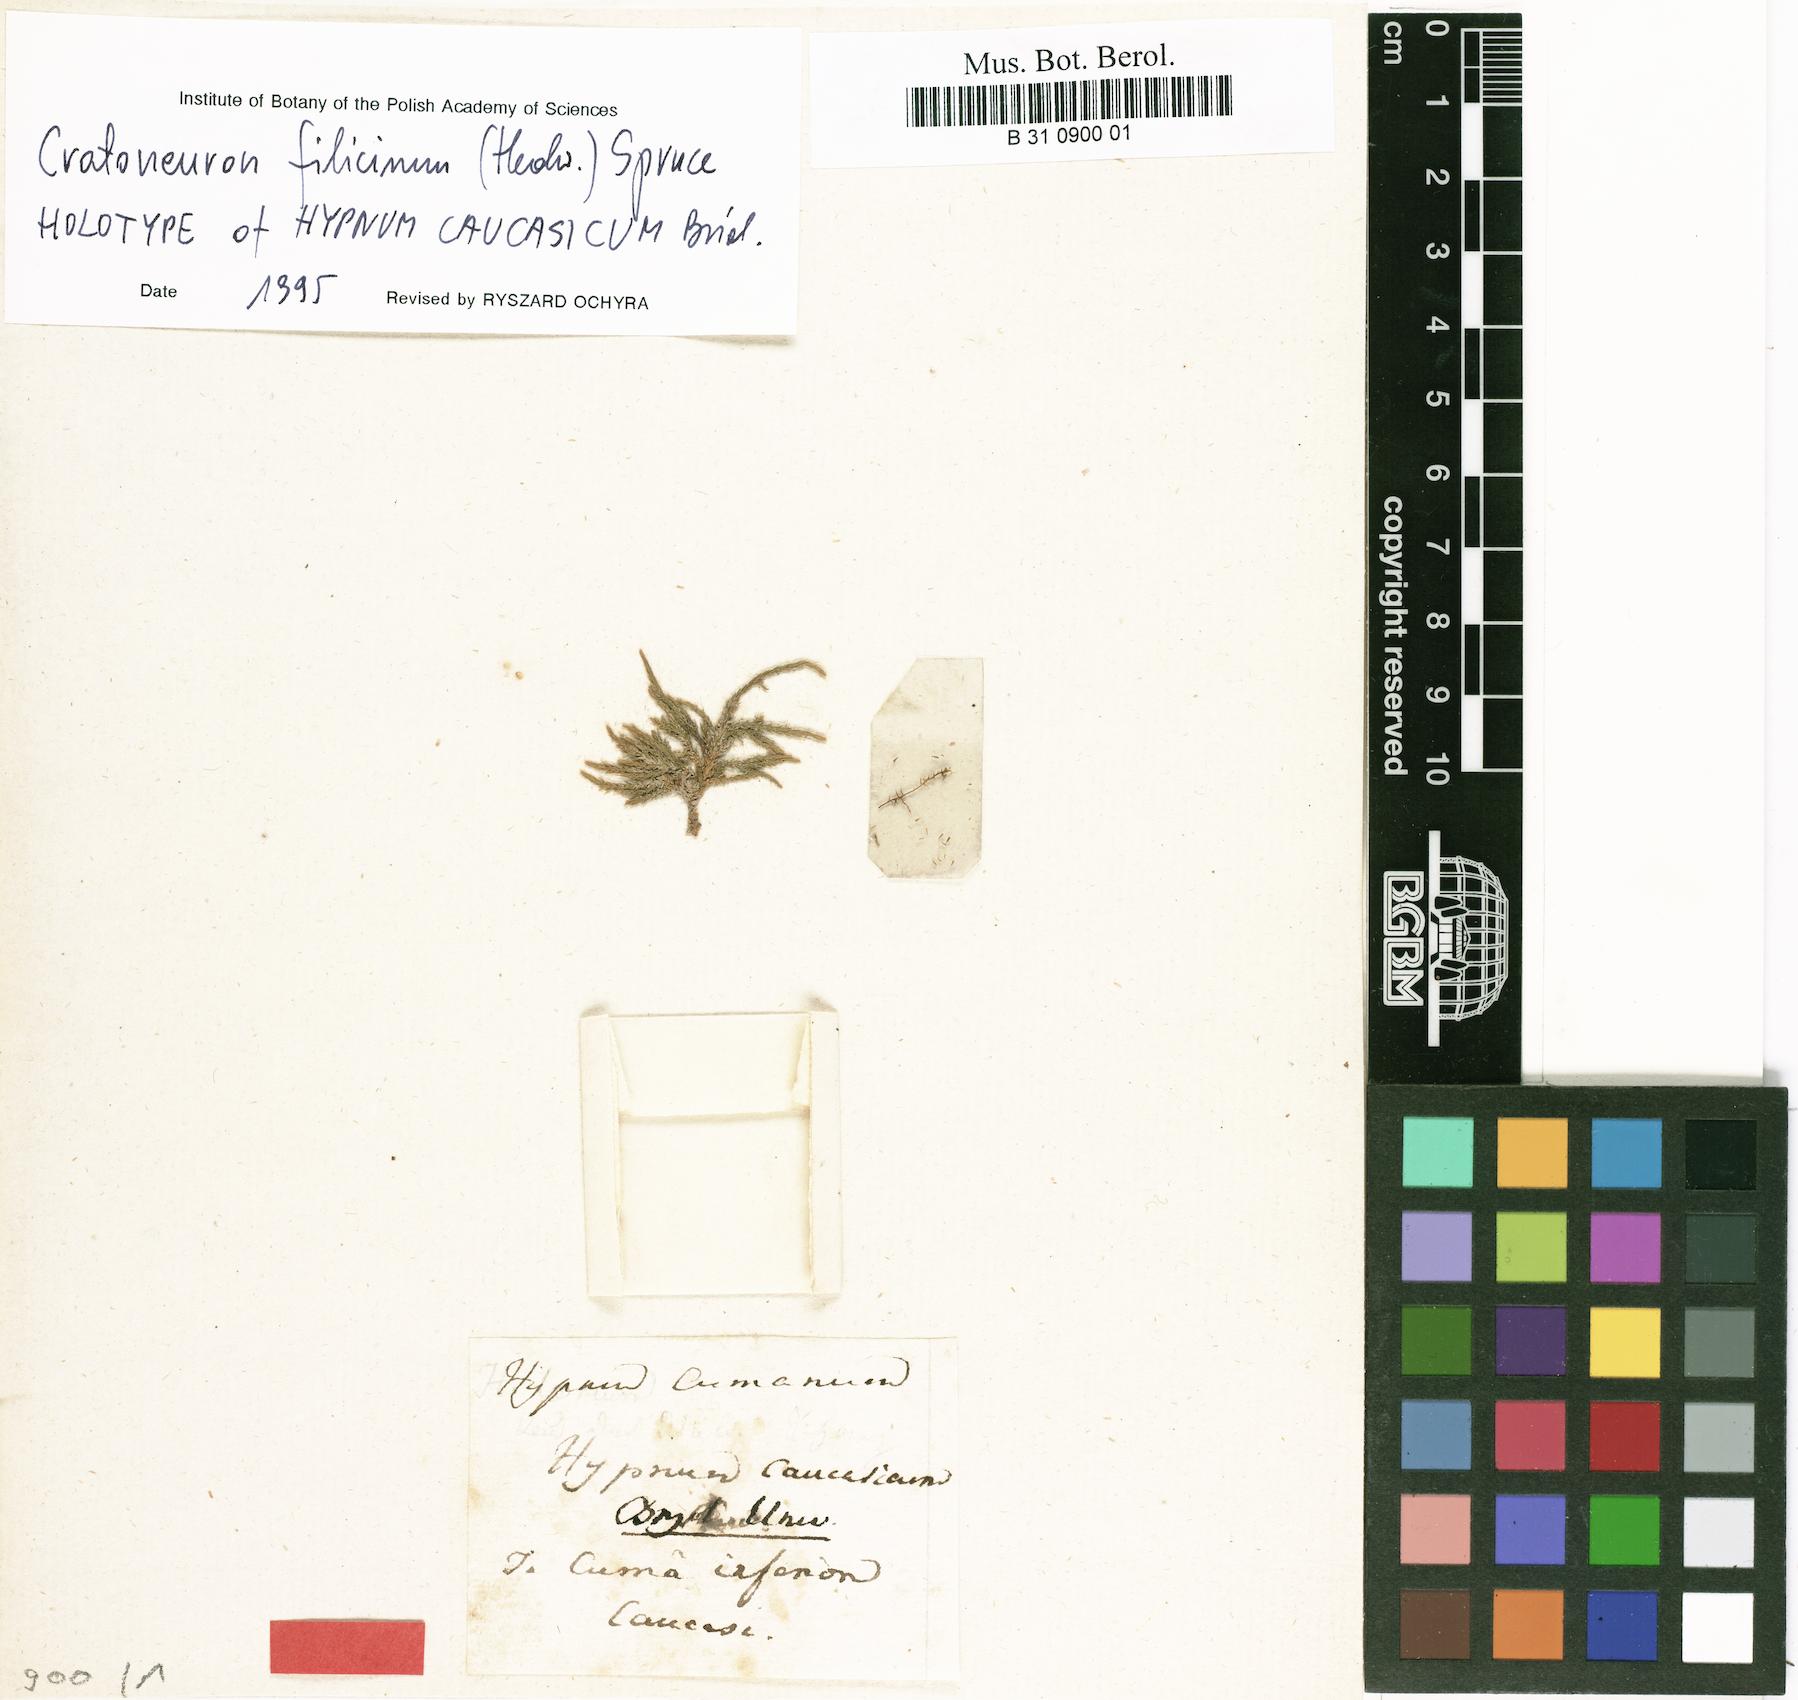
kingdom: Plantae
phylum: Bryophyta
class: Bryopsida
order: Hypnales
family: Amblystegiaceae
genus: Cratoneuron
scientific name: Cratoneuron filicinum
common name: Fern-leaved hook moss
